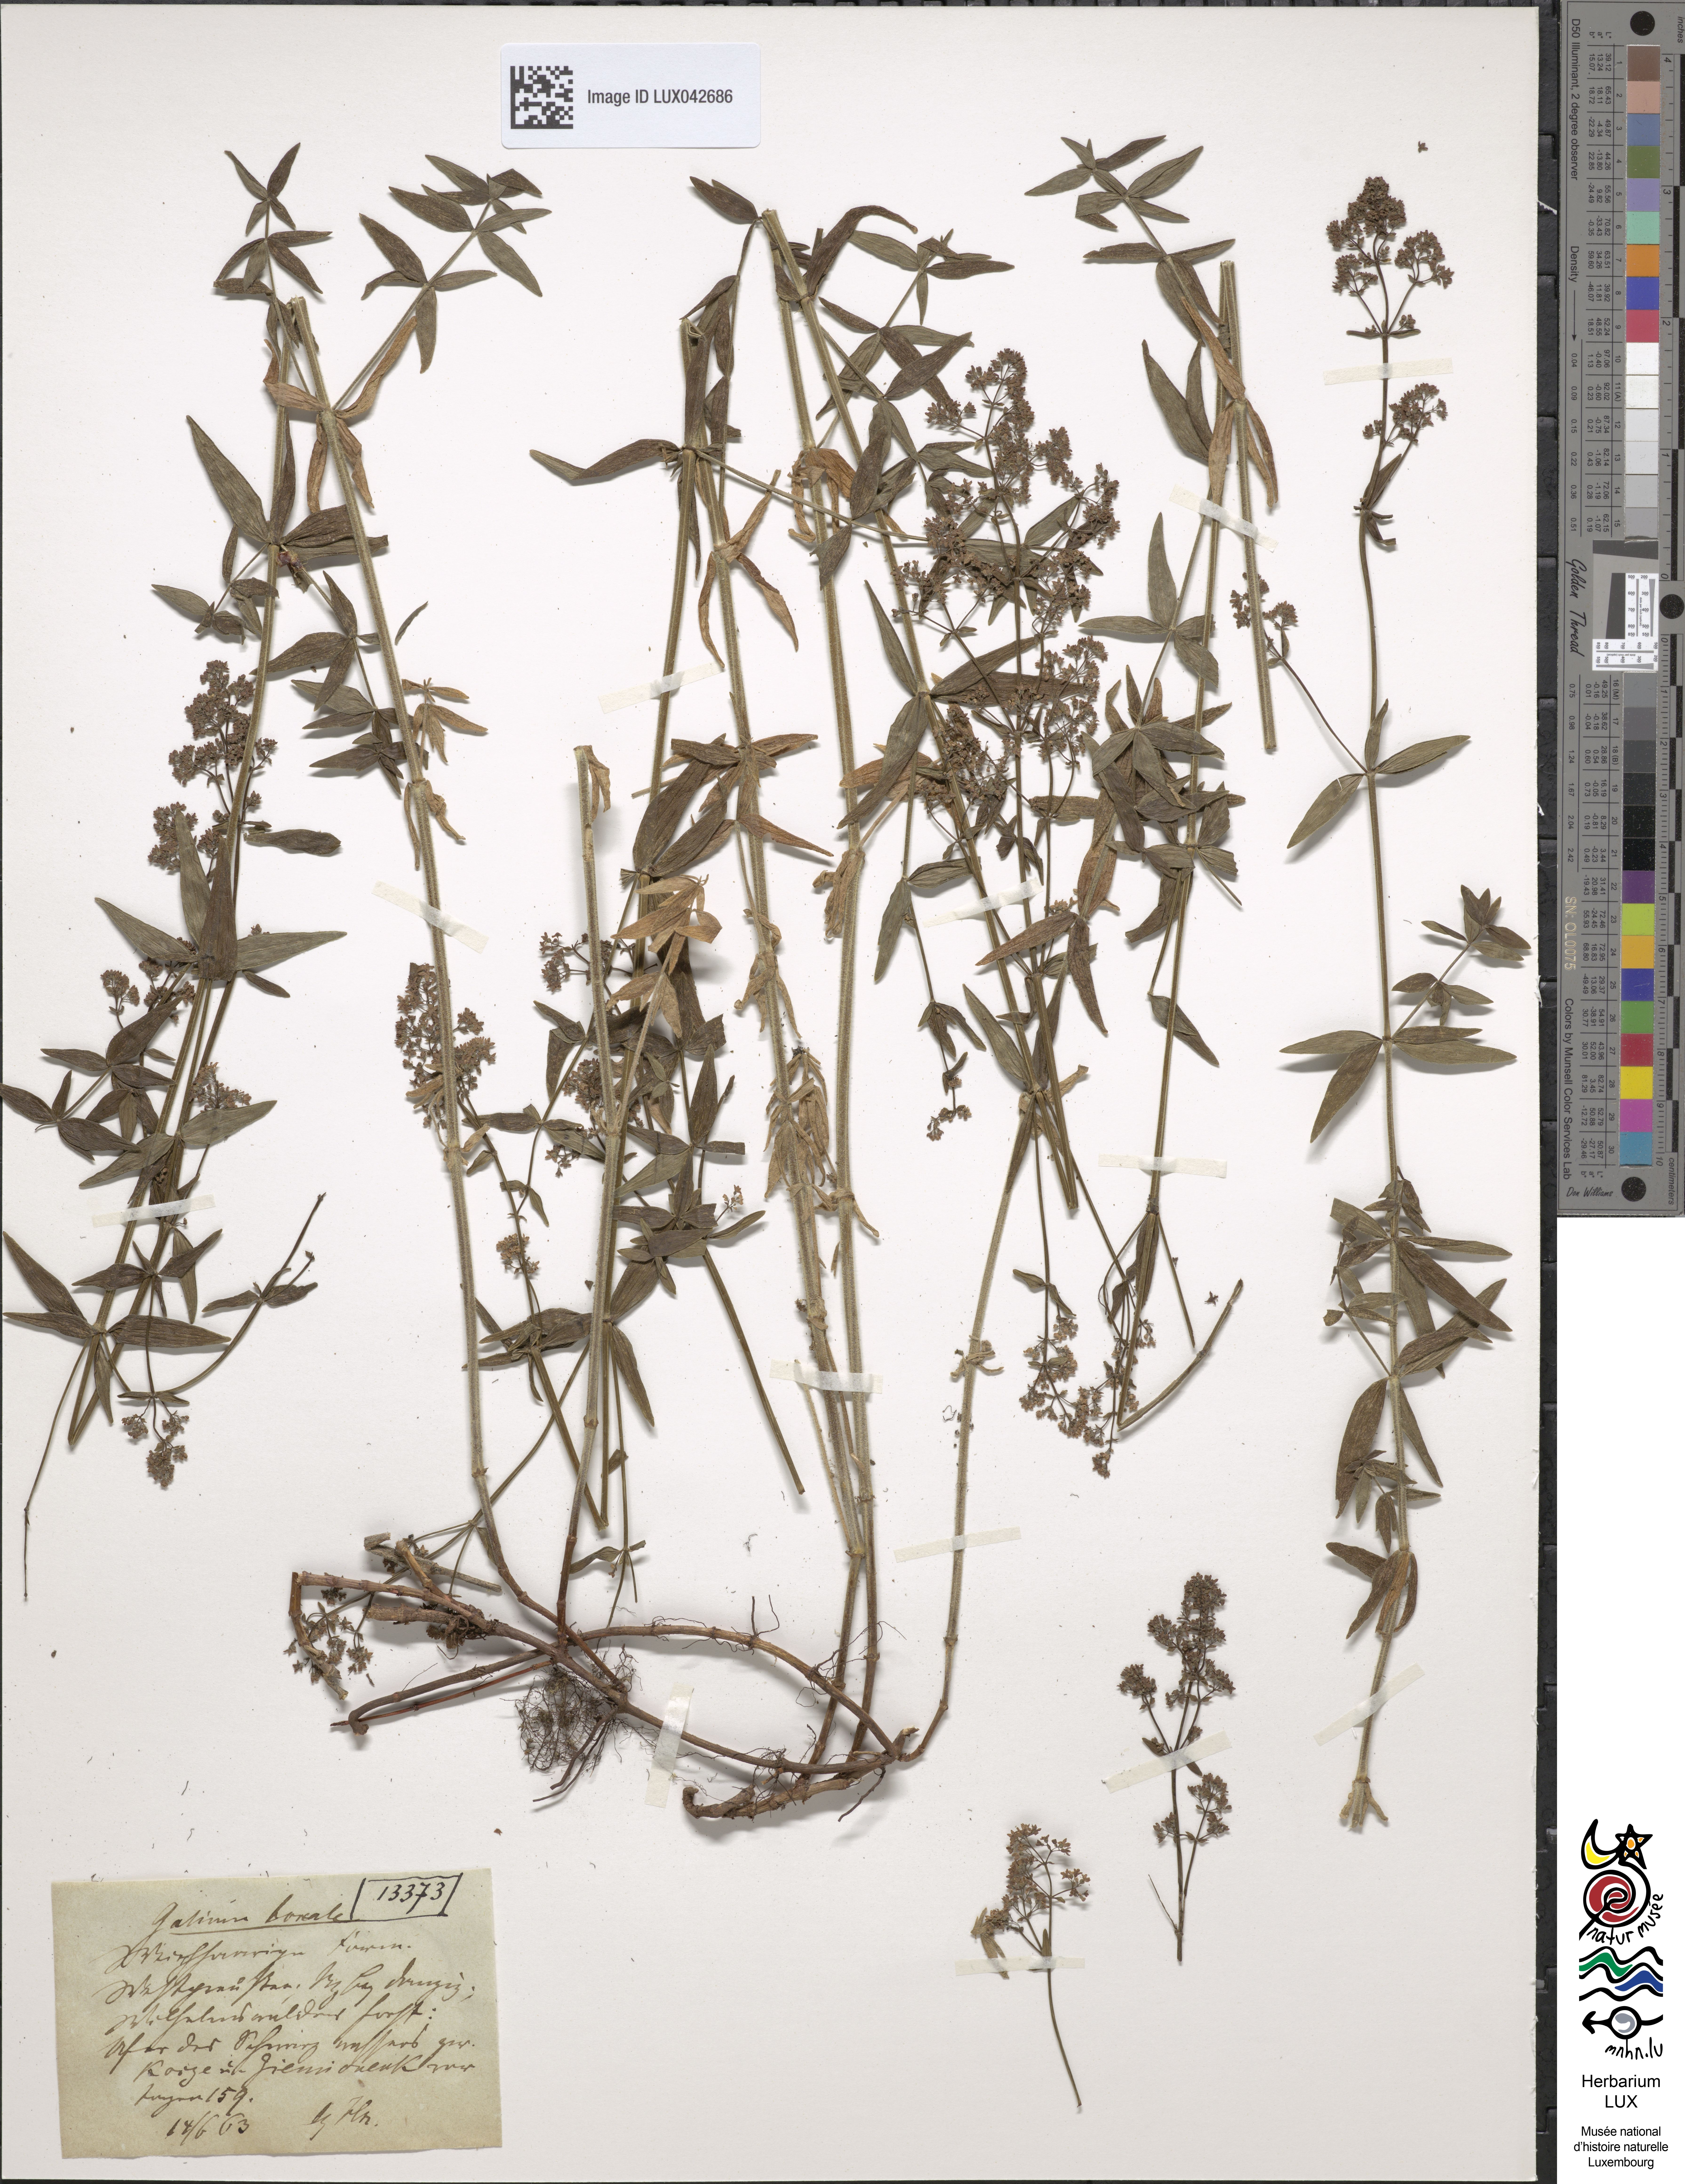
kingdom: Plantae
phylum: Tracheophyta
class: Magnoliopsida
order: Gentianales
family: Rubiaceae
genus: Galium
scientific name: Galium boreale
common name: Northern bedstraw
